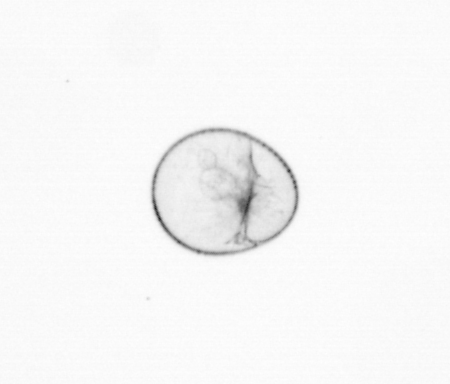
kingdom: Chromista
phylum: Myzozoa
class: Dinophyceae
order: Noctilucales
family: Noctilucaceae
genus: Noctiluca
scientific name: Noctiluca scintillans
